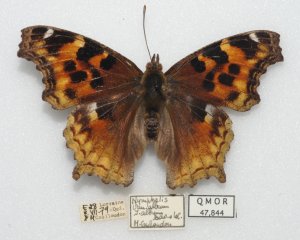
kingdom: Animalia
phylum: Arthropoda
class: Insecta
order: Lepidoptera
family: Nymphalidae
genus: Polygonia
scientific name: Polygonia vaualbum
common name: Compton Tortoiseshell
